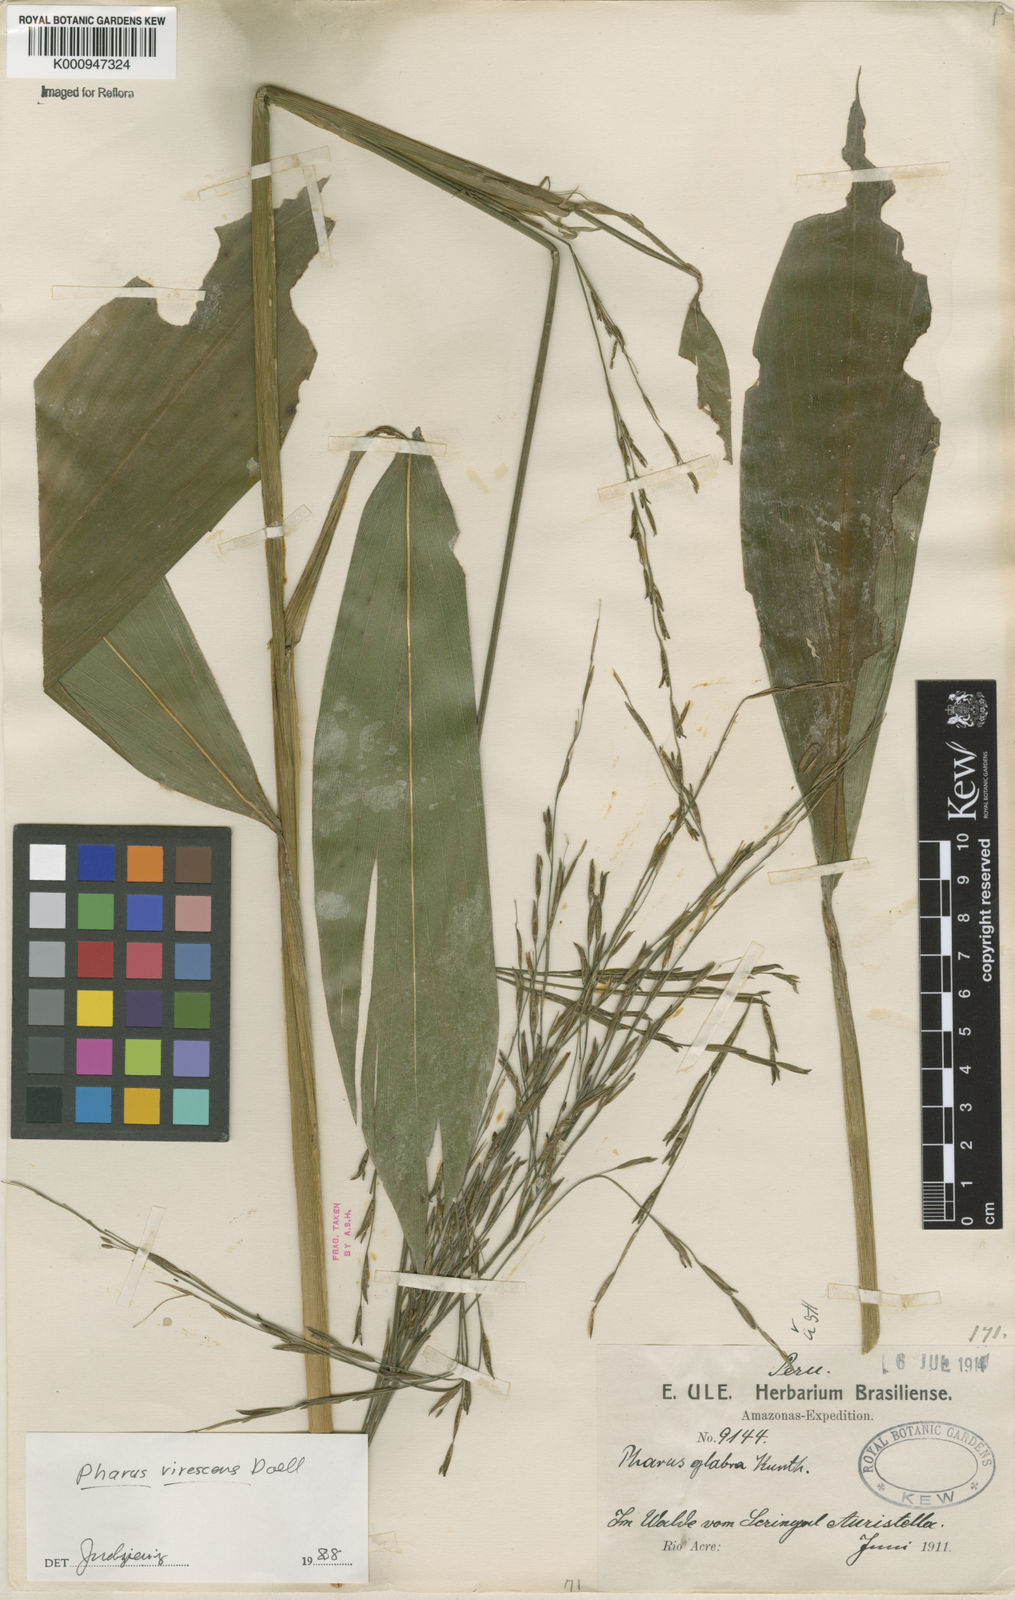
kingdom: Plantae
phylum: Tracheophyta
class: Liliopsida
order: Poales
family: Poaceae
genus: Pharus
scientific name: Pharus
